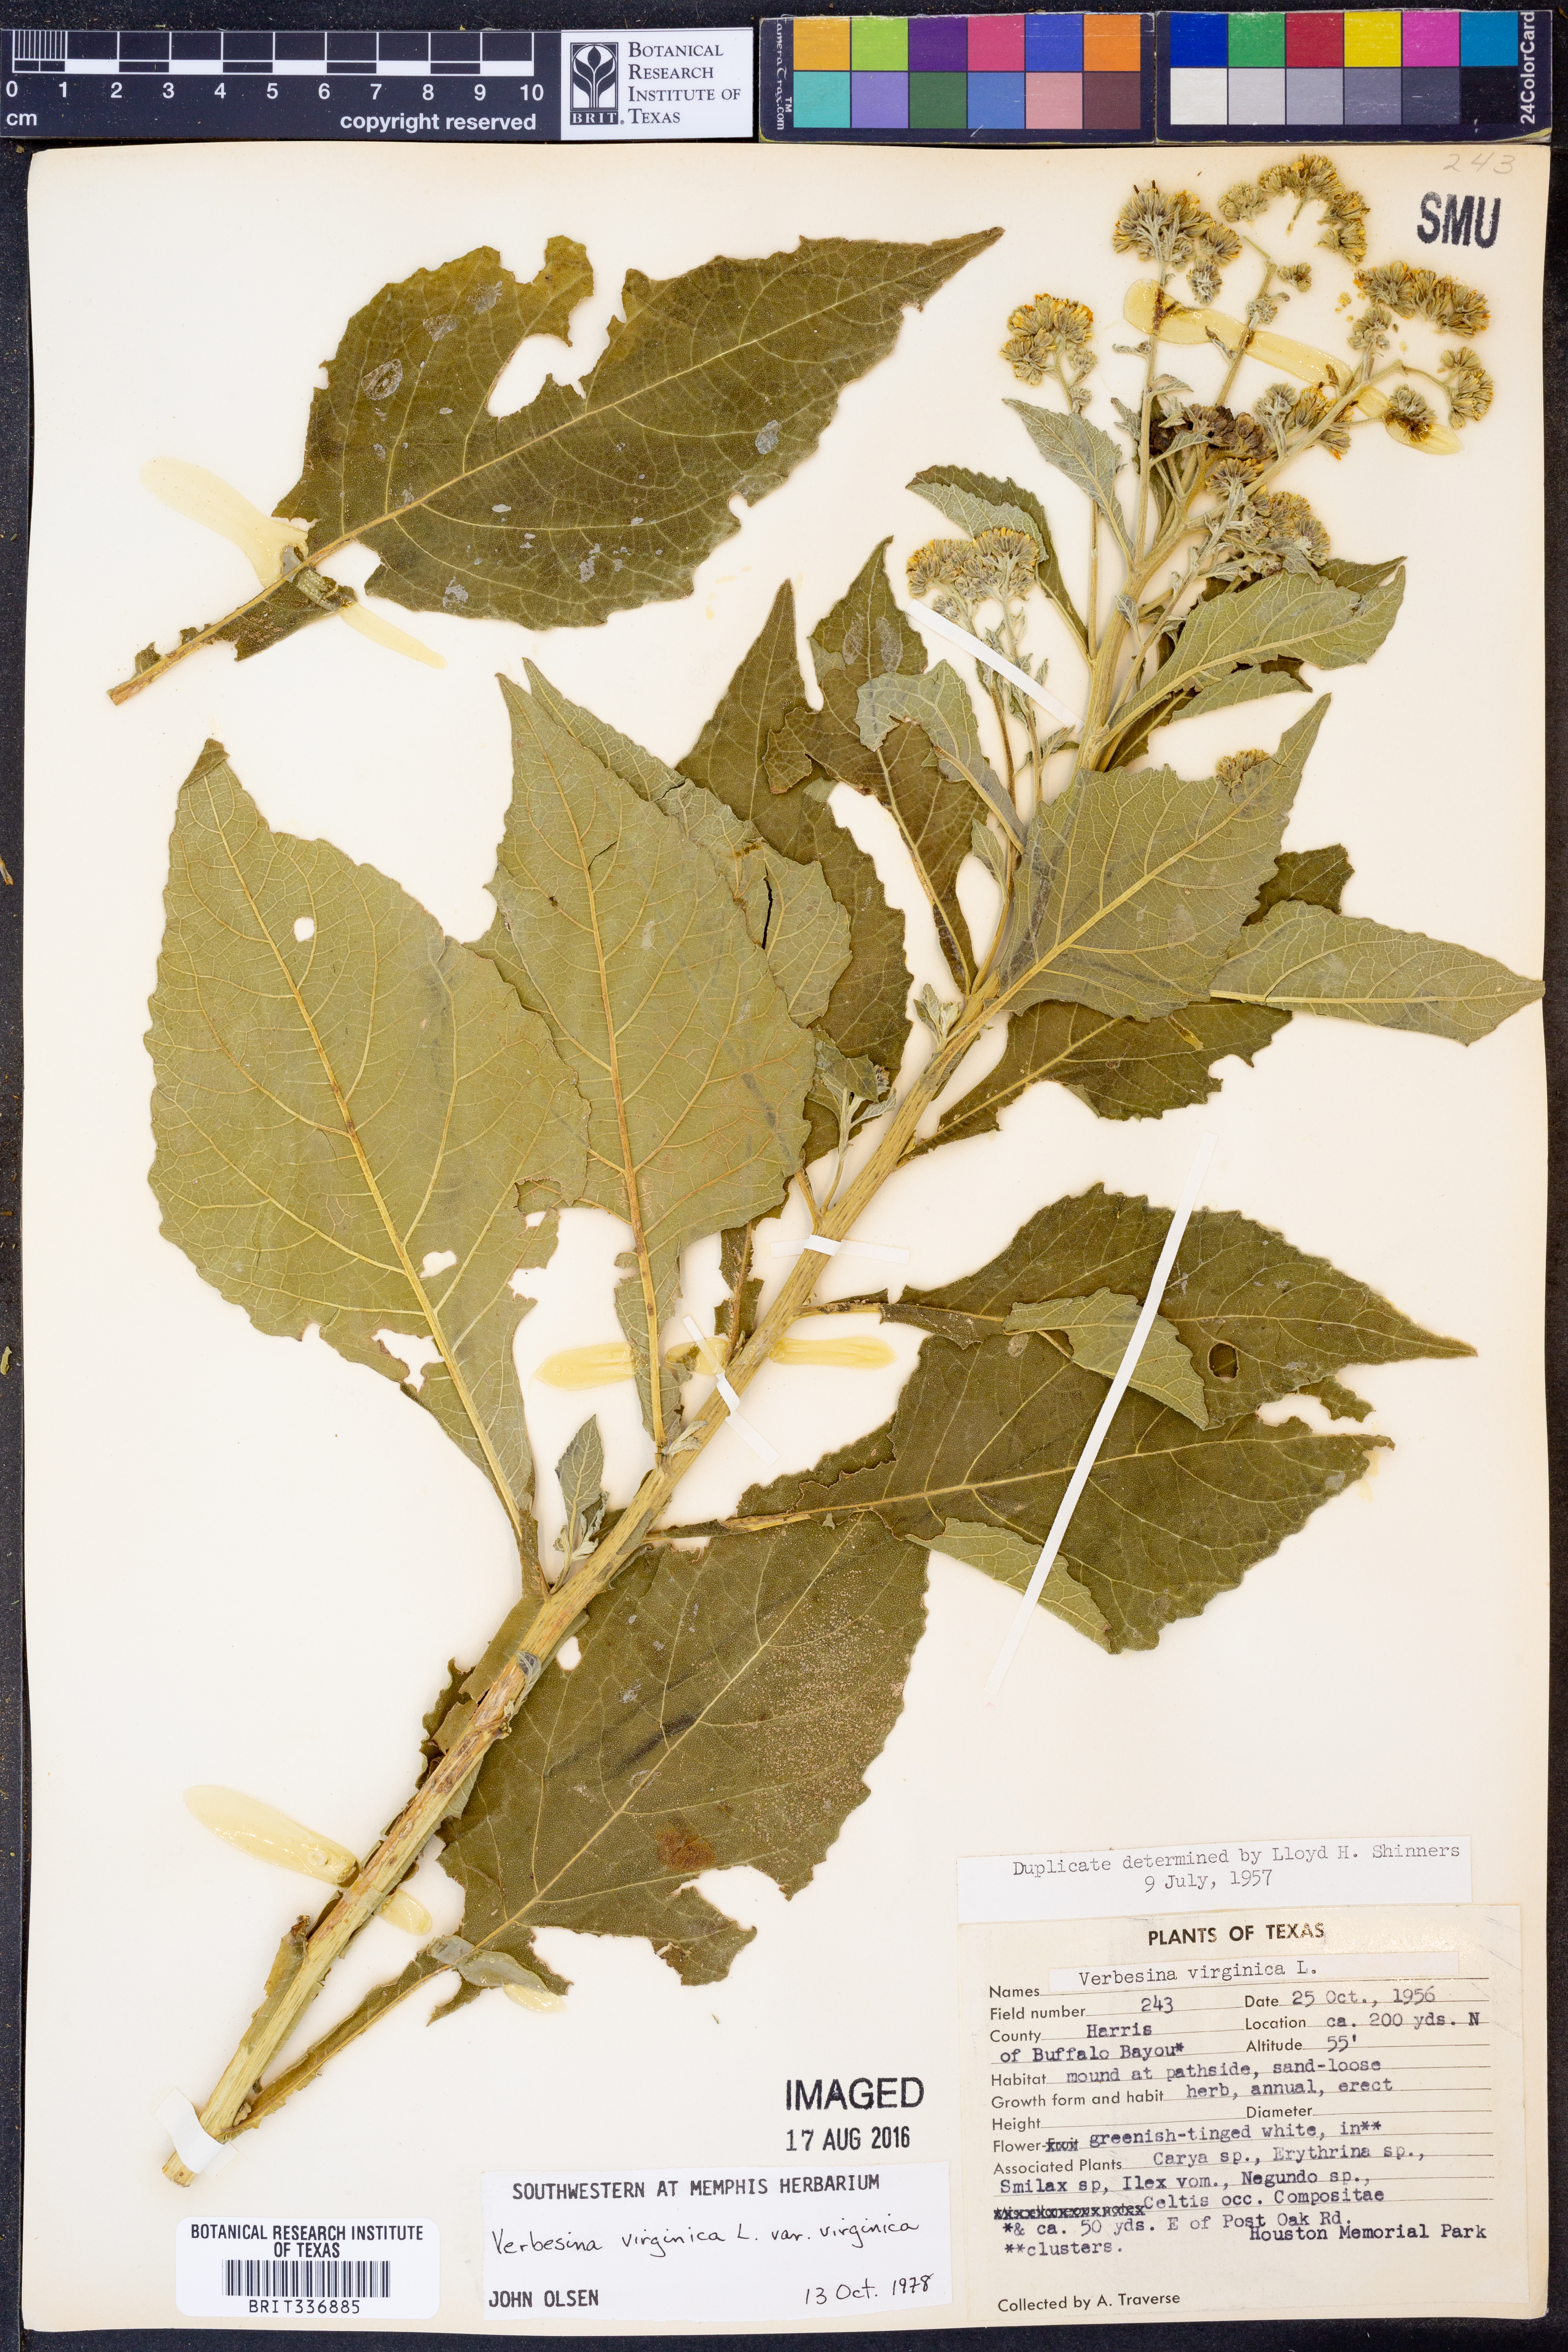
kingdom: Plantae
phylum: Tracheophyta
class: Magnoliopsida
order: Asterales
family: Asteraceae
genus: Verbesina
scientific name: Verbesina virginica
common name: Frostweed
